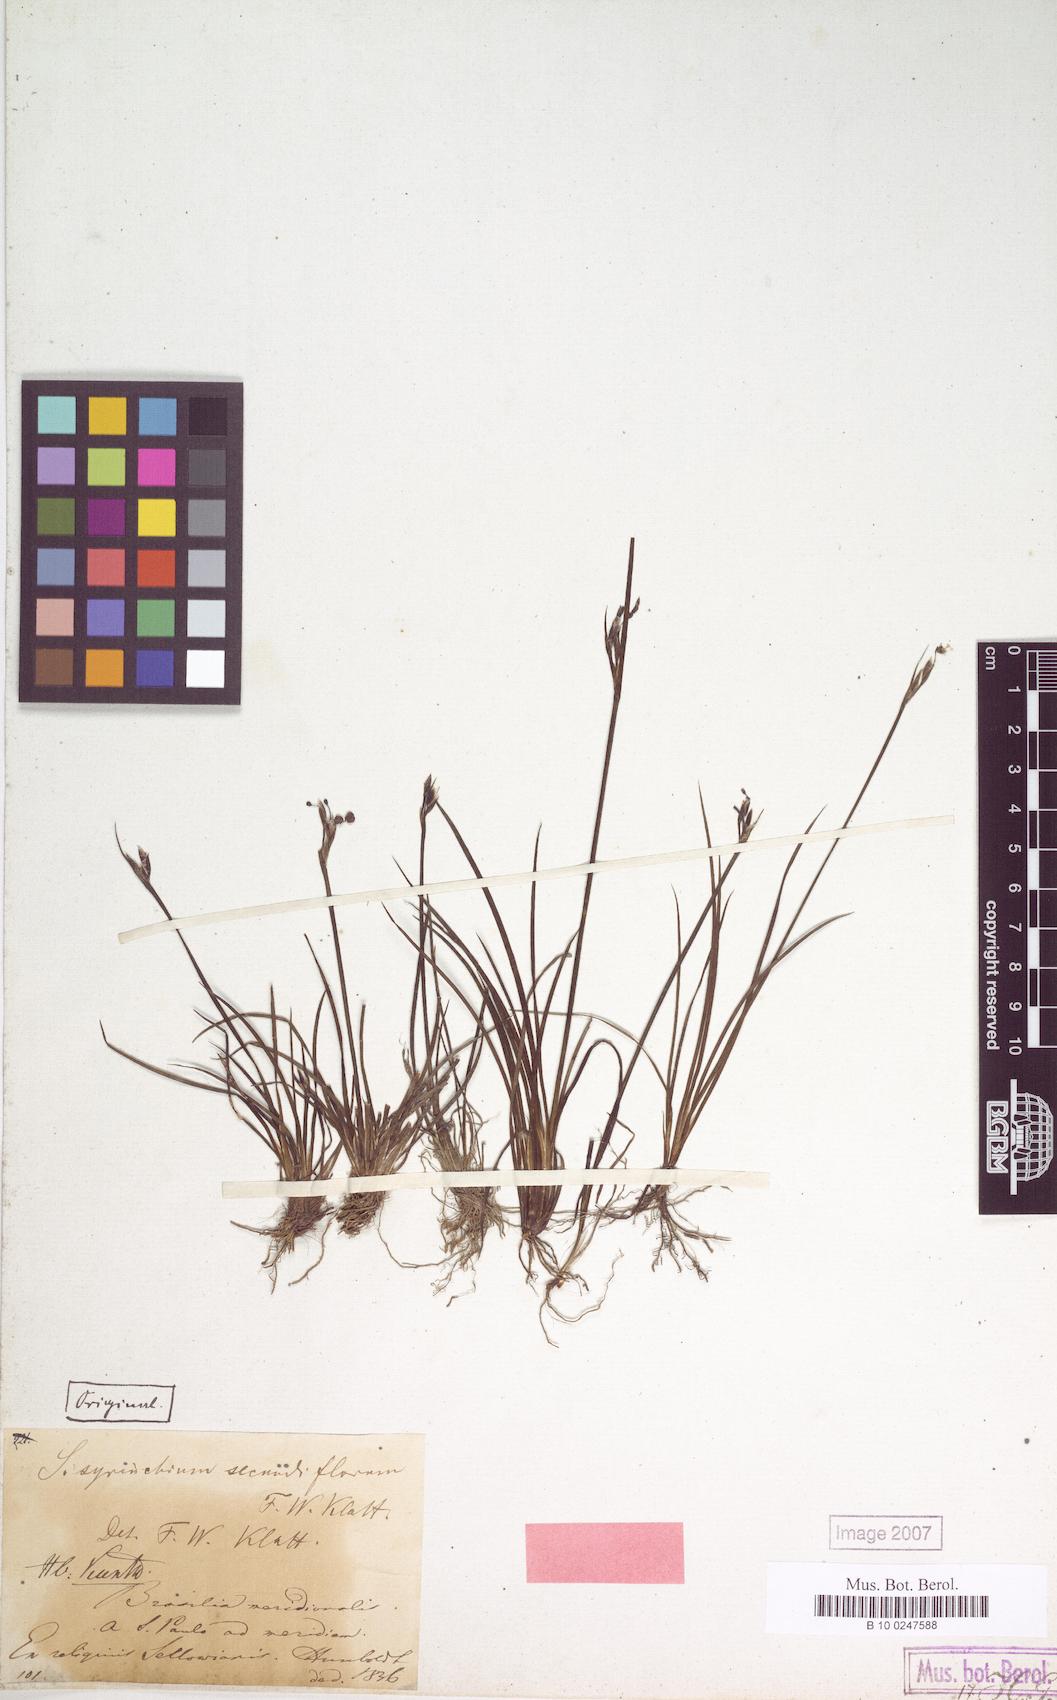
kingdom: Plantae
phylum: Tracheophyta
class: Liliopsida
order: Asparagales
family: Iridaceae
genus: Sisyrinchium
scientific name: Sisyrinchium commutatum
